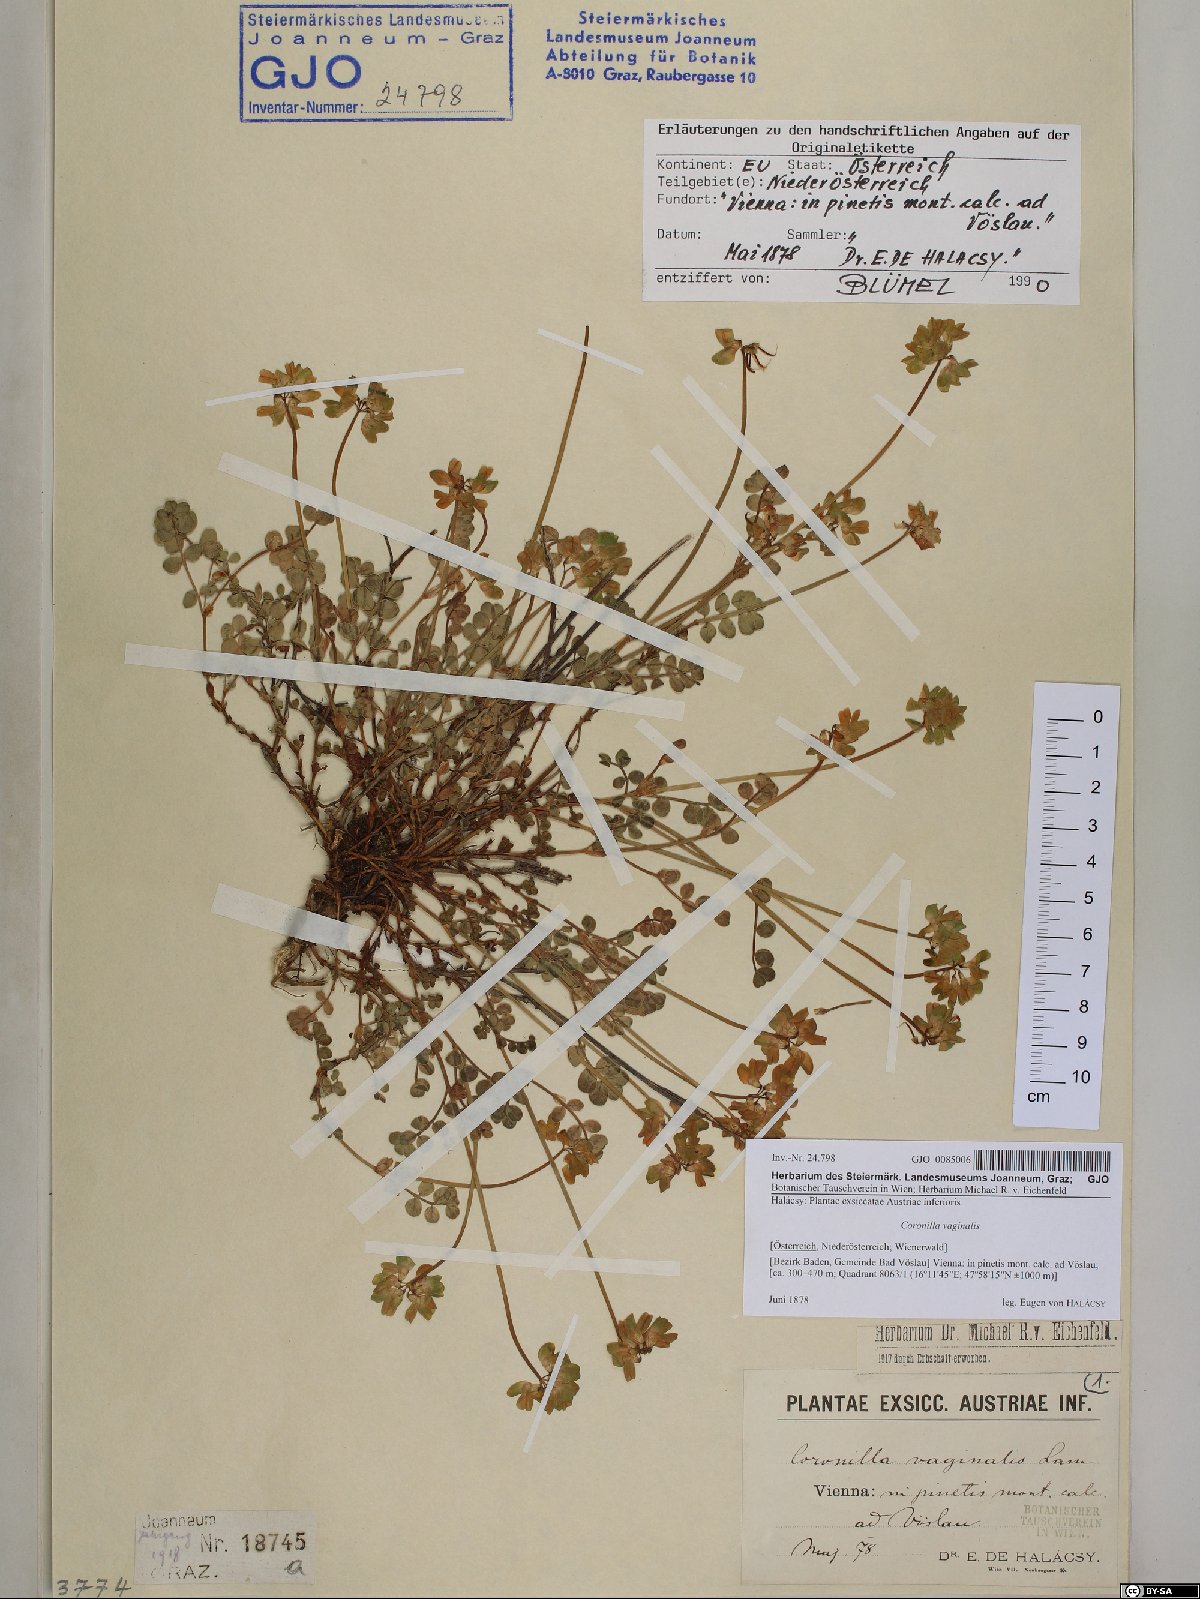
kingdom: Plantae
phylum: Tracheophyta
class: Magnoliopsida
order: Fabales
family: Fabaceae
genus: Coronilla
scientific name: Coronilla vaginalis
